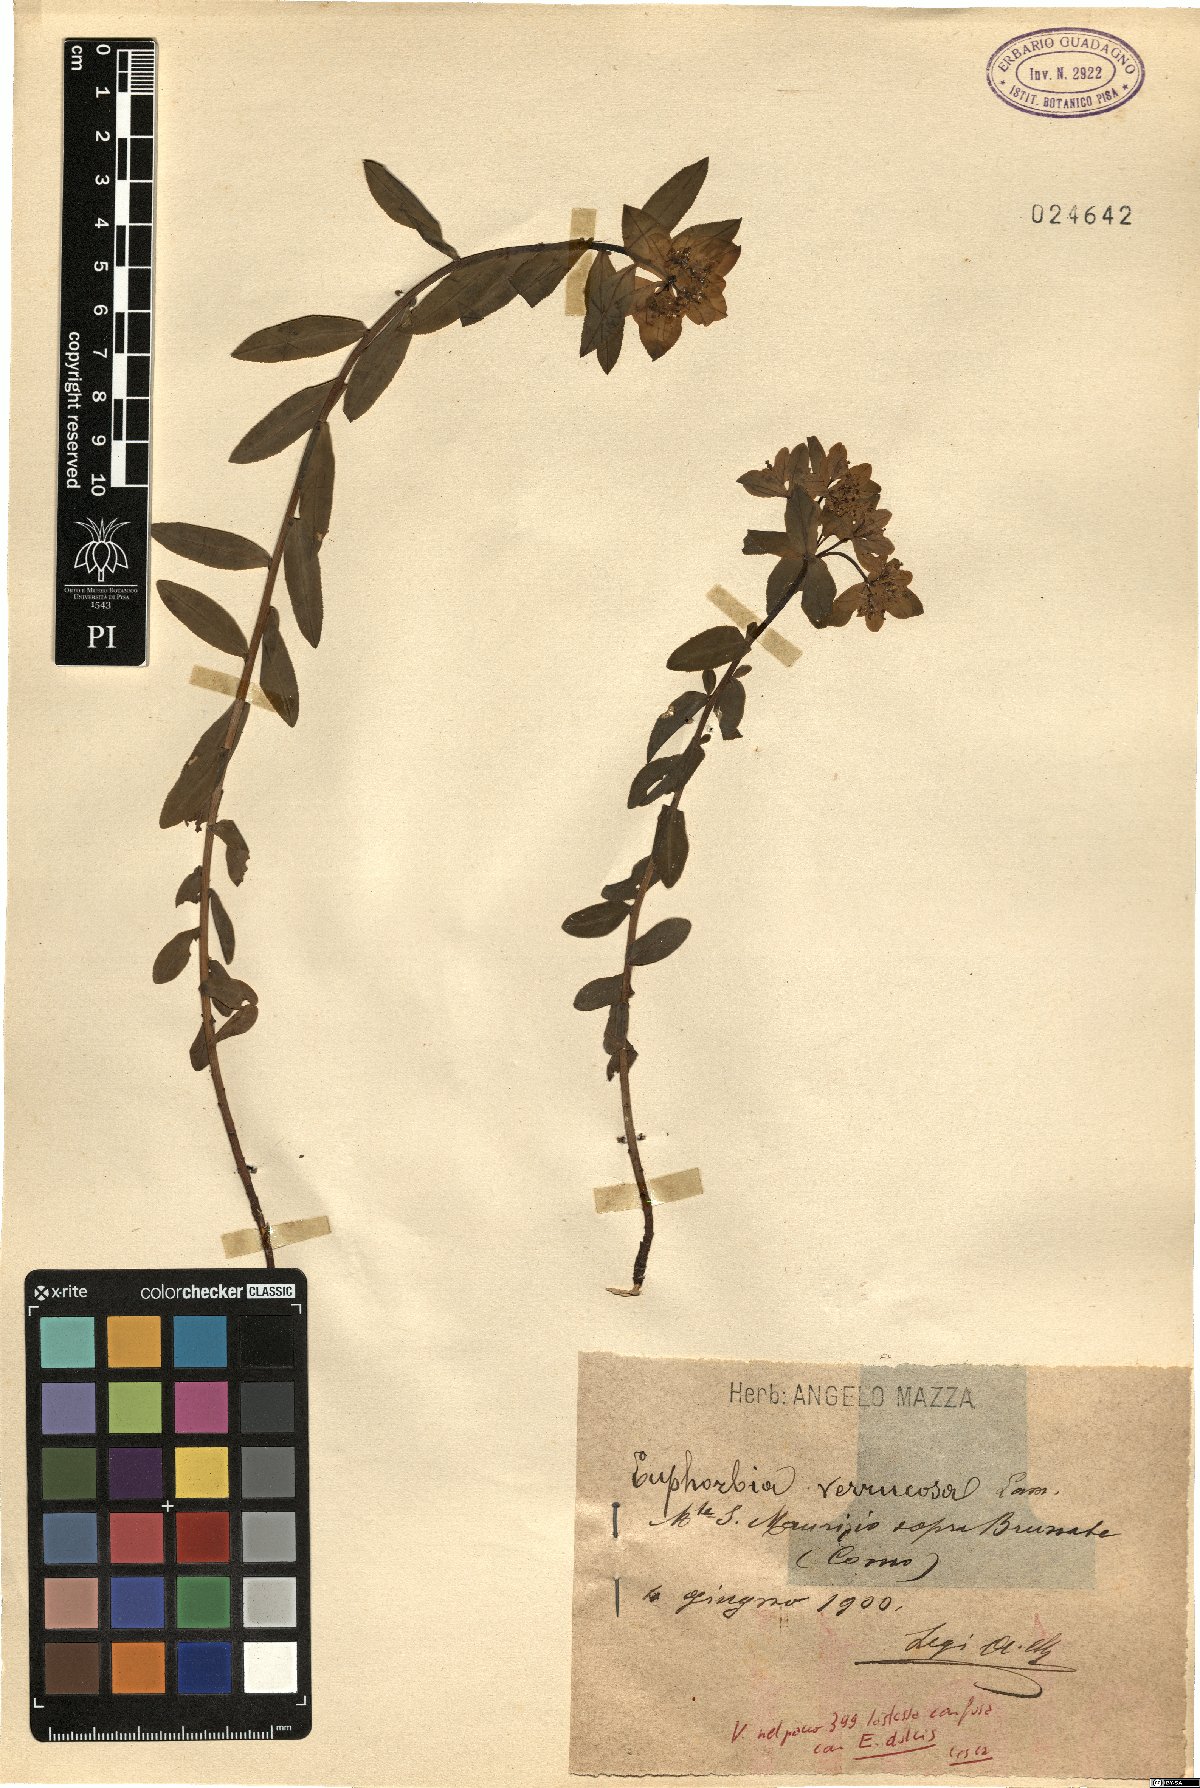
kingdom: Plantae
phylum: Tracheophyta
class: Magnoliopsida
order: Malpighiales
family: Euphorbiaceae
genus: Euphorbia
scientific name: Euphorbia verrucosa
